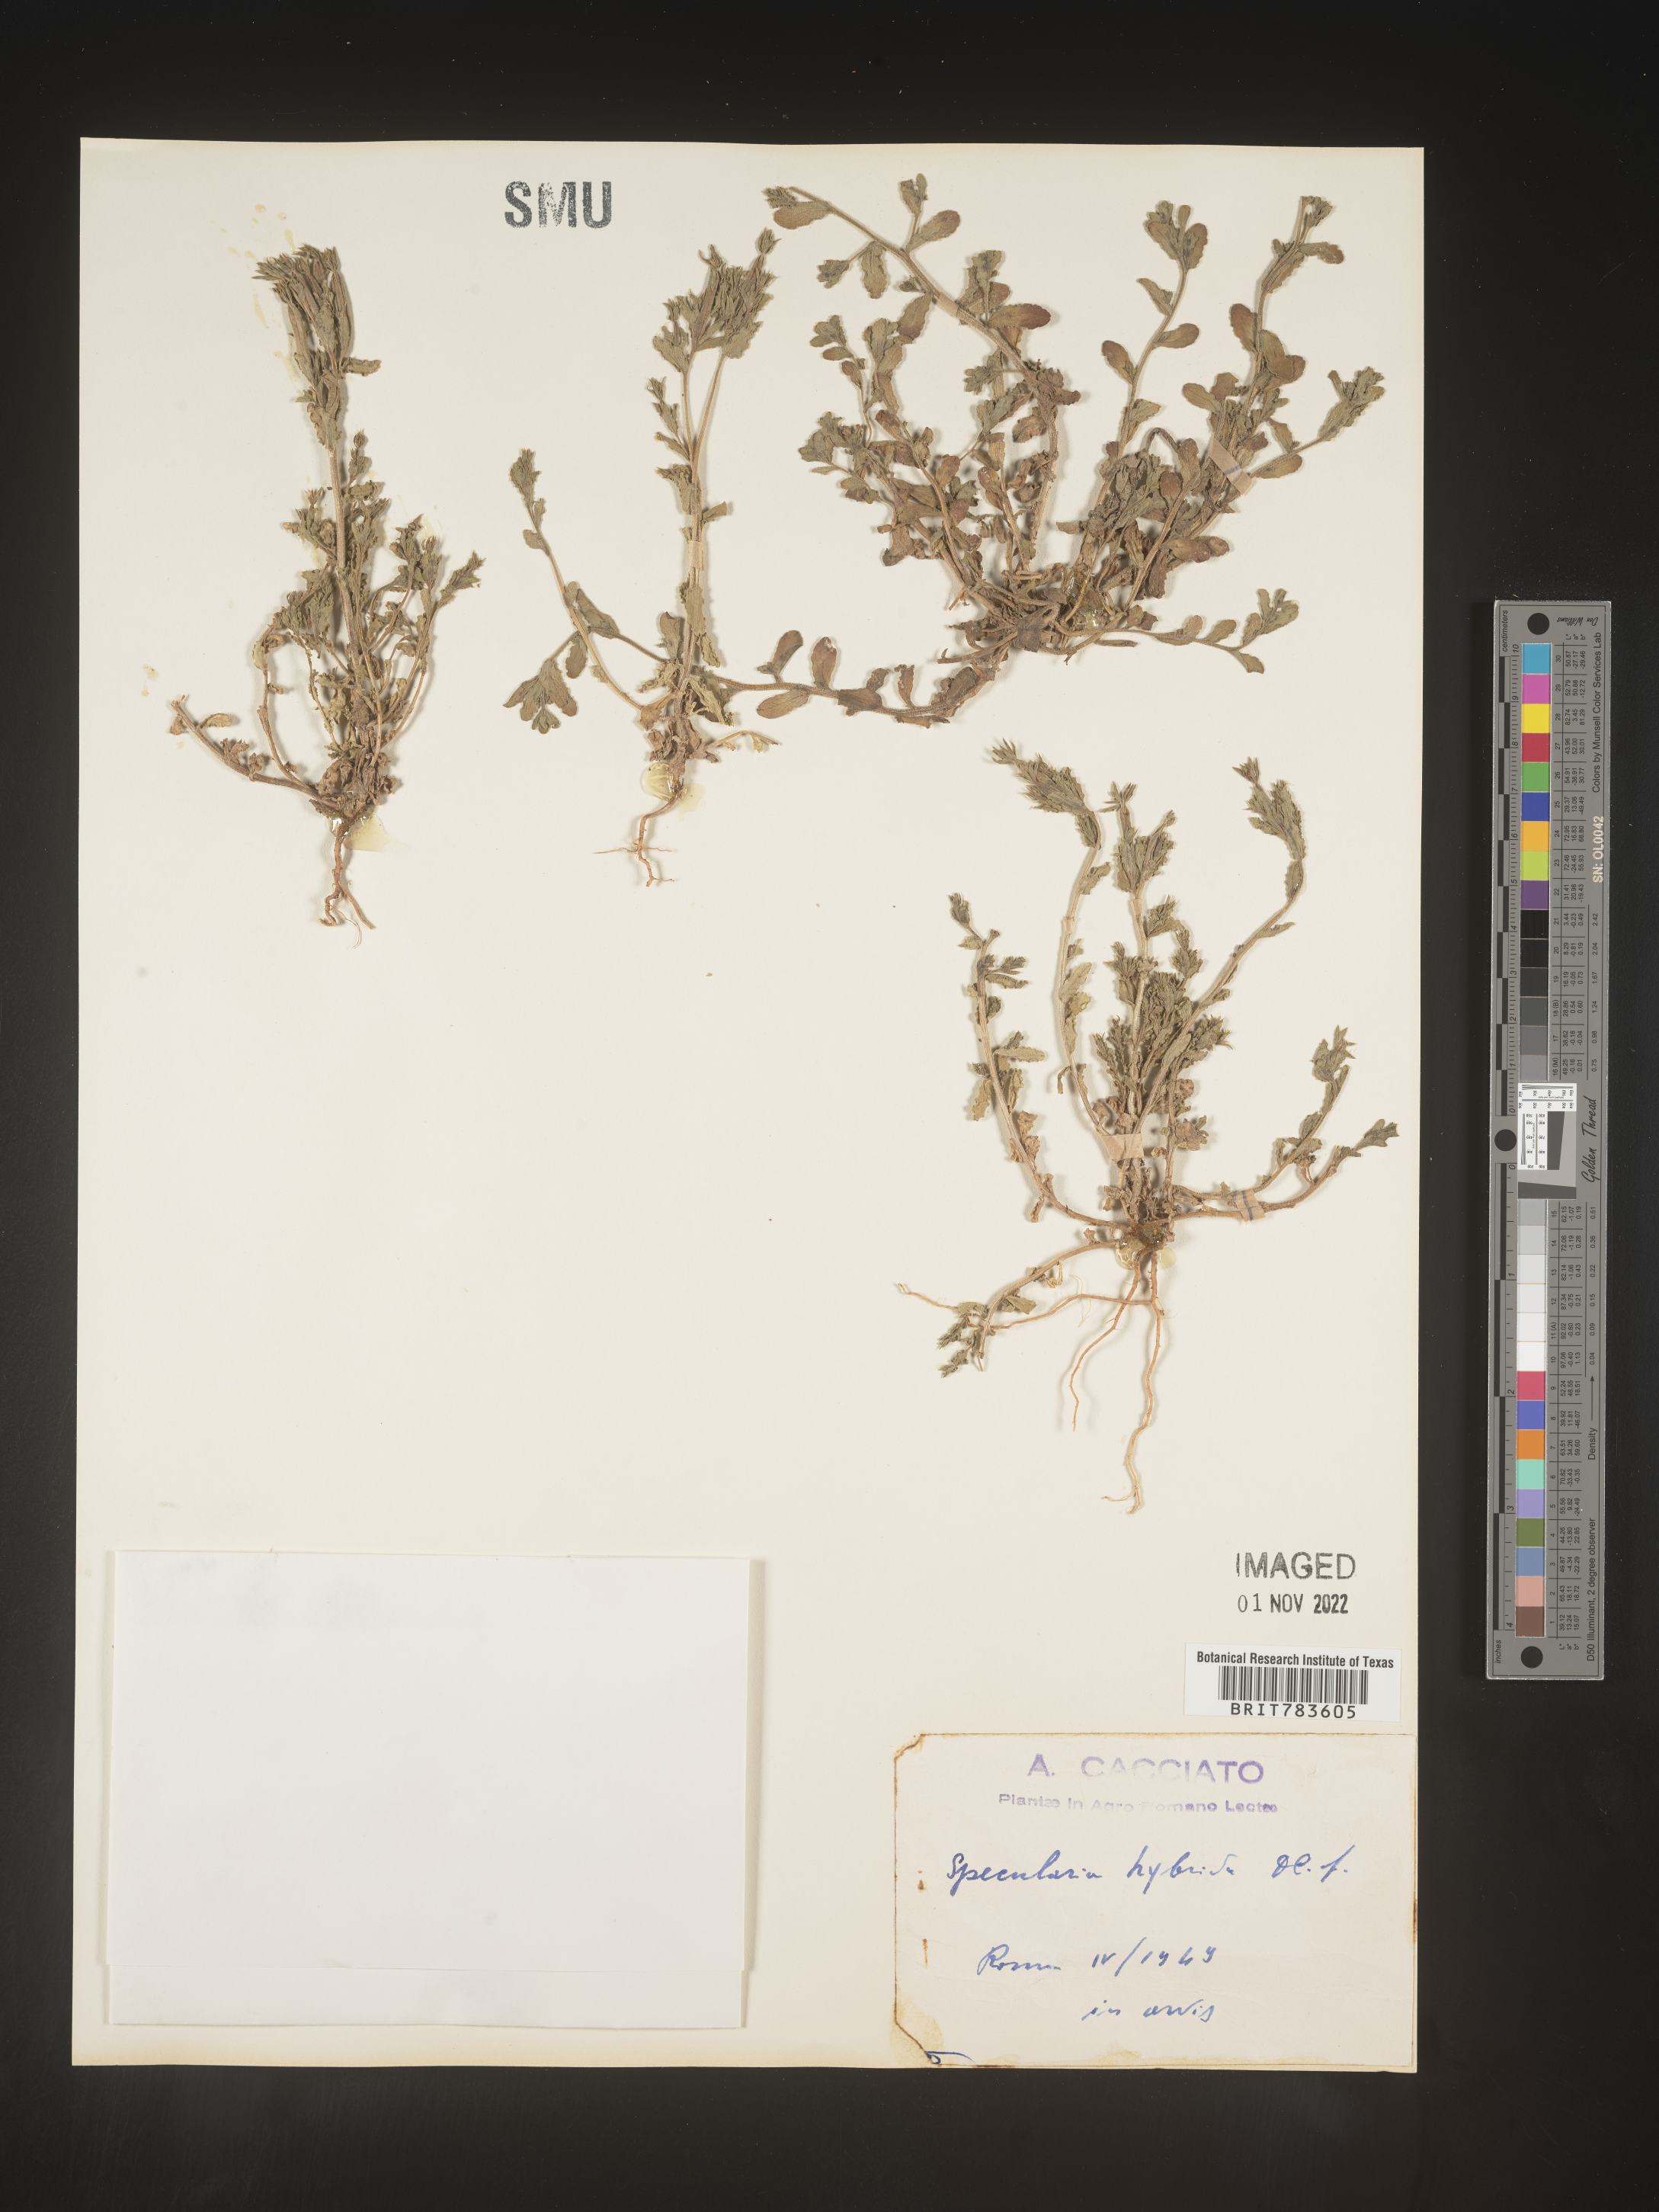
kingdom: Plantae
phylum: Tracheophyta
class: Magnoliopsida
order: Asterales
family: Campanulaceae
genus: Specularia
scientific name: Specularia
